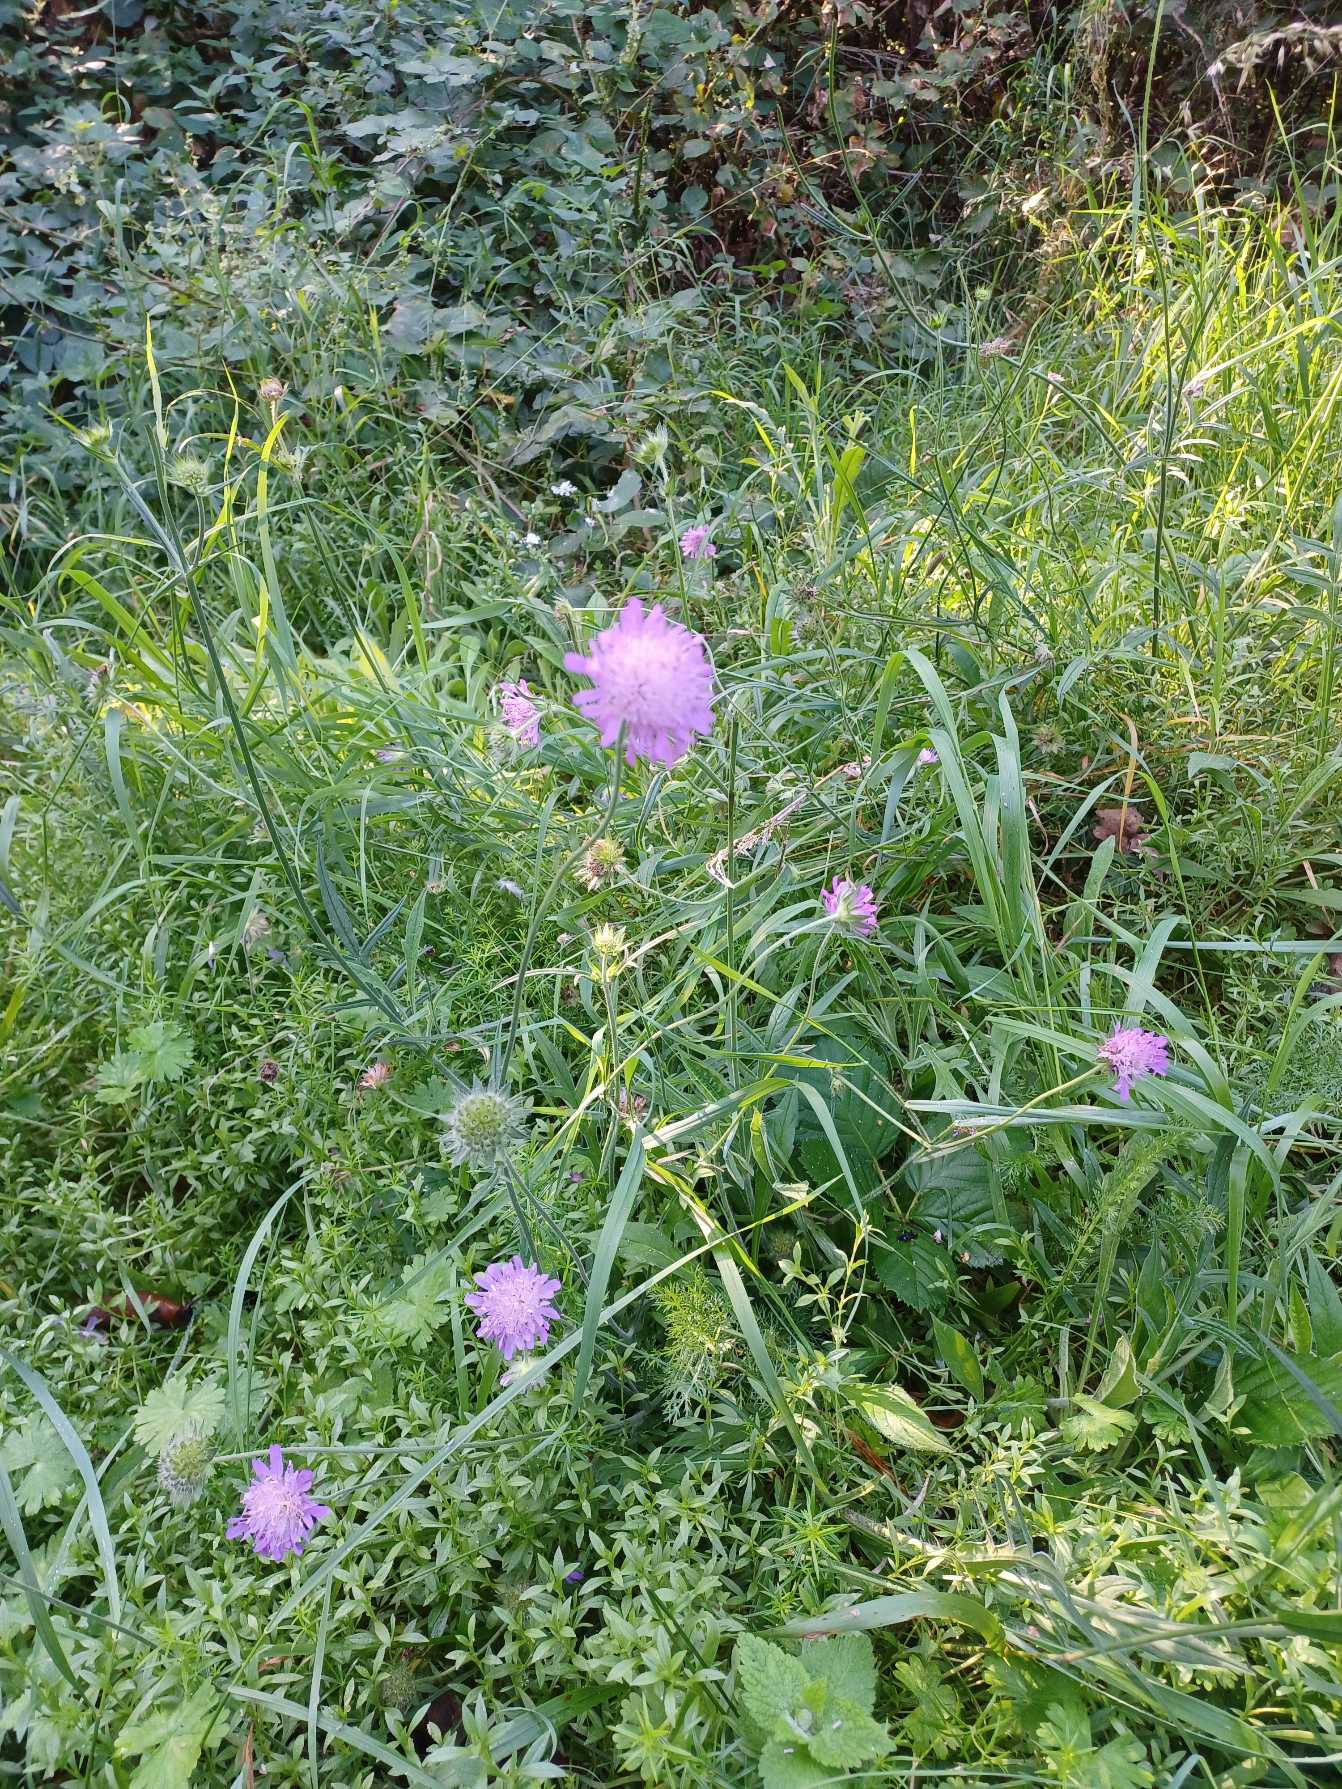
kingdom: Plantae
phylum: Tracheophyta
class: Magnoliopsida
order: Dipsacales
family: Caprifoliaceae
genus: Knautia
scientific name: Knautia arvensis
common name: Blåhat
